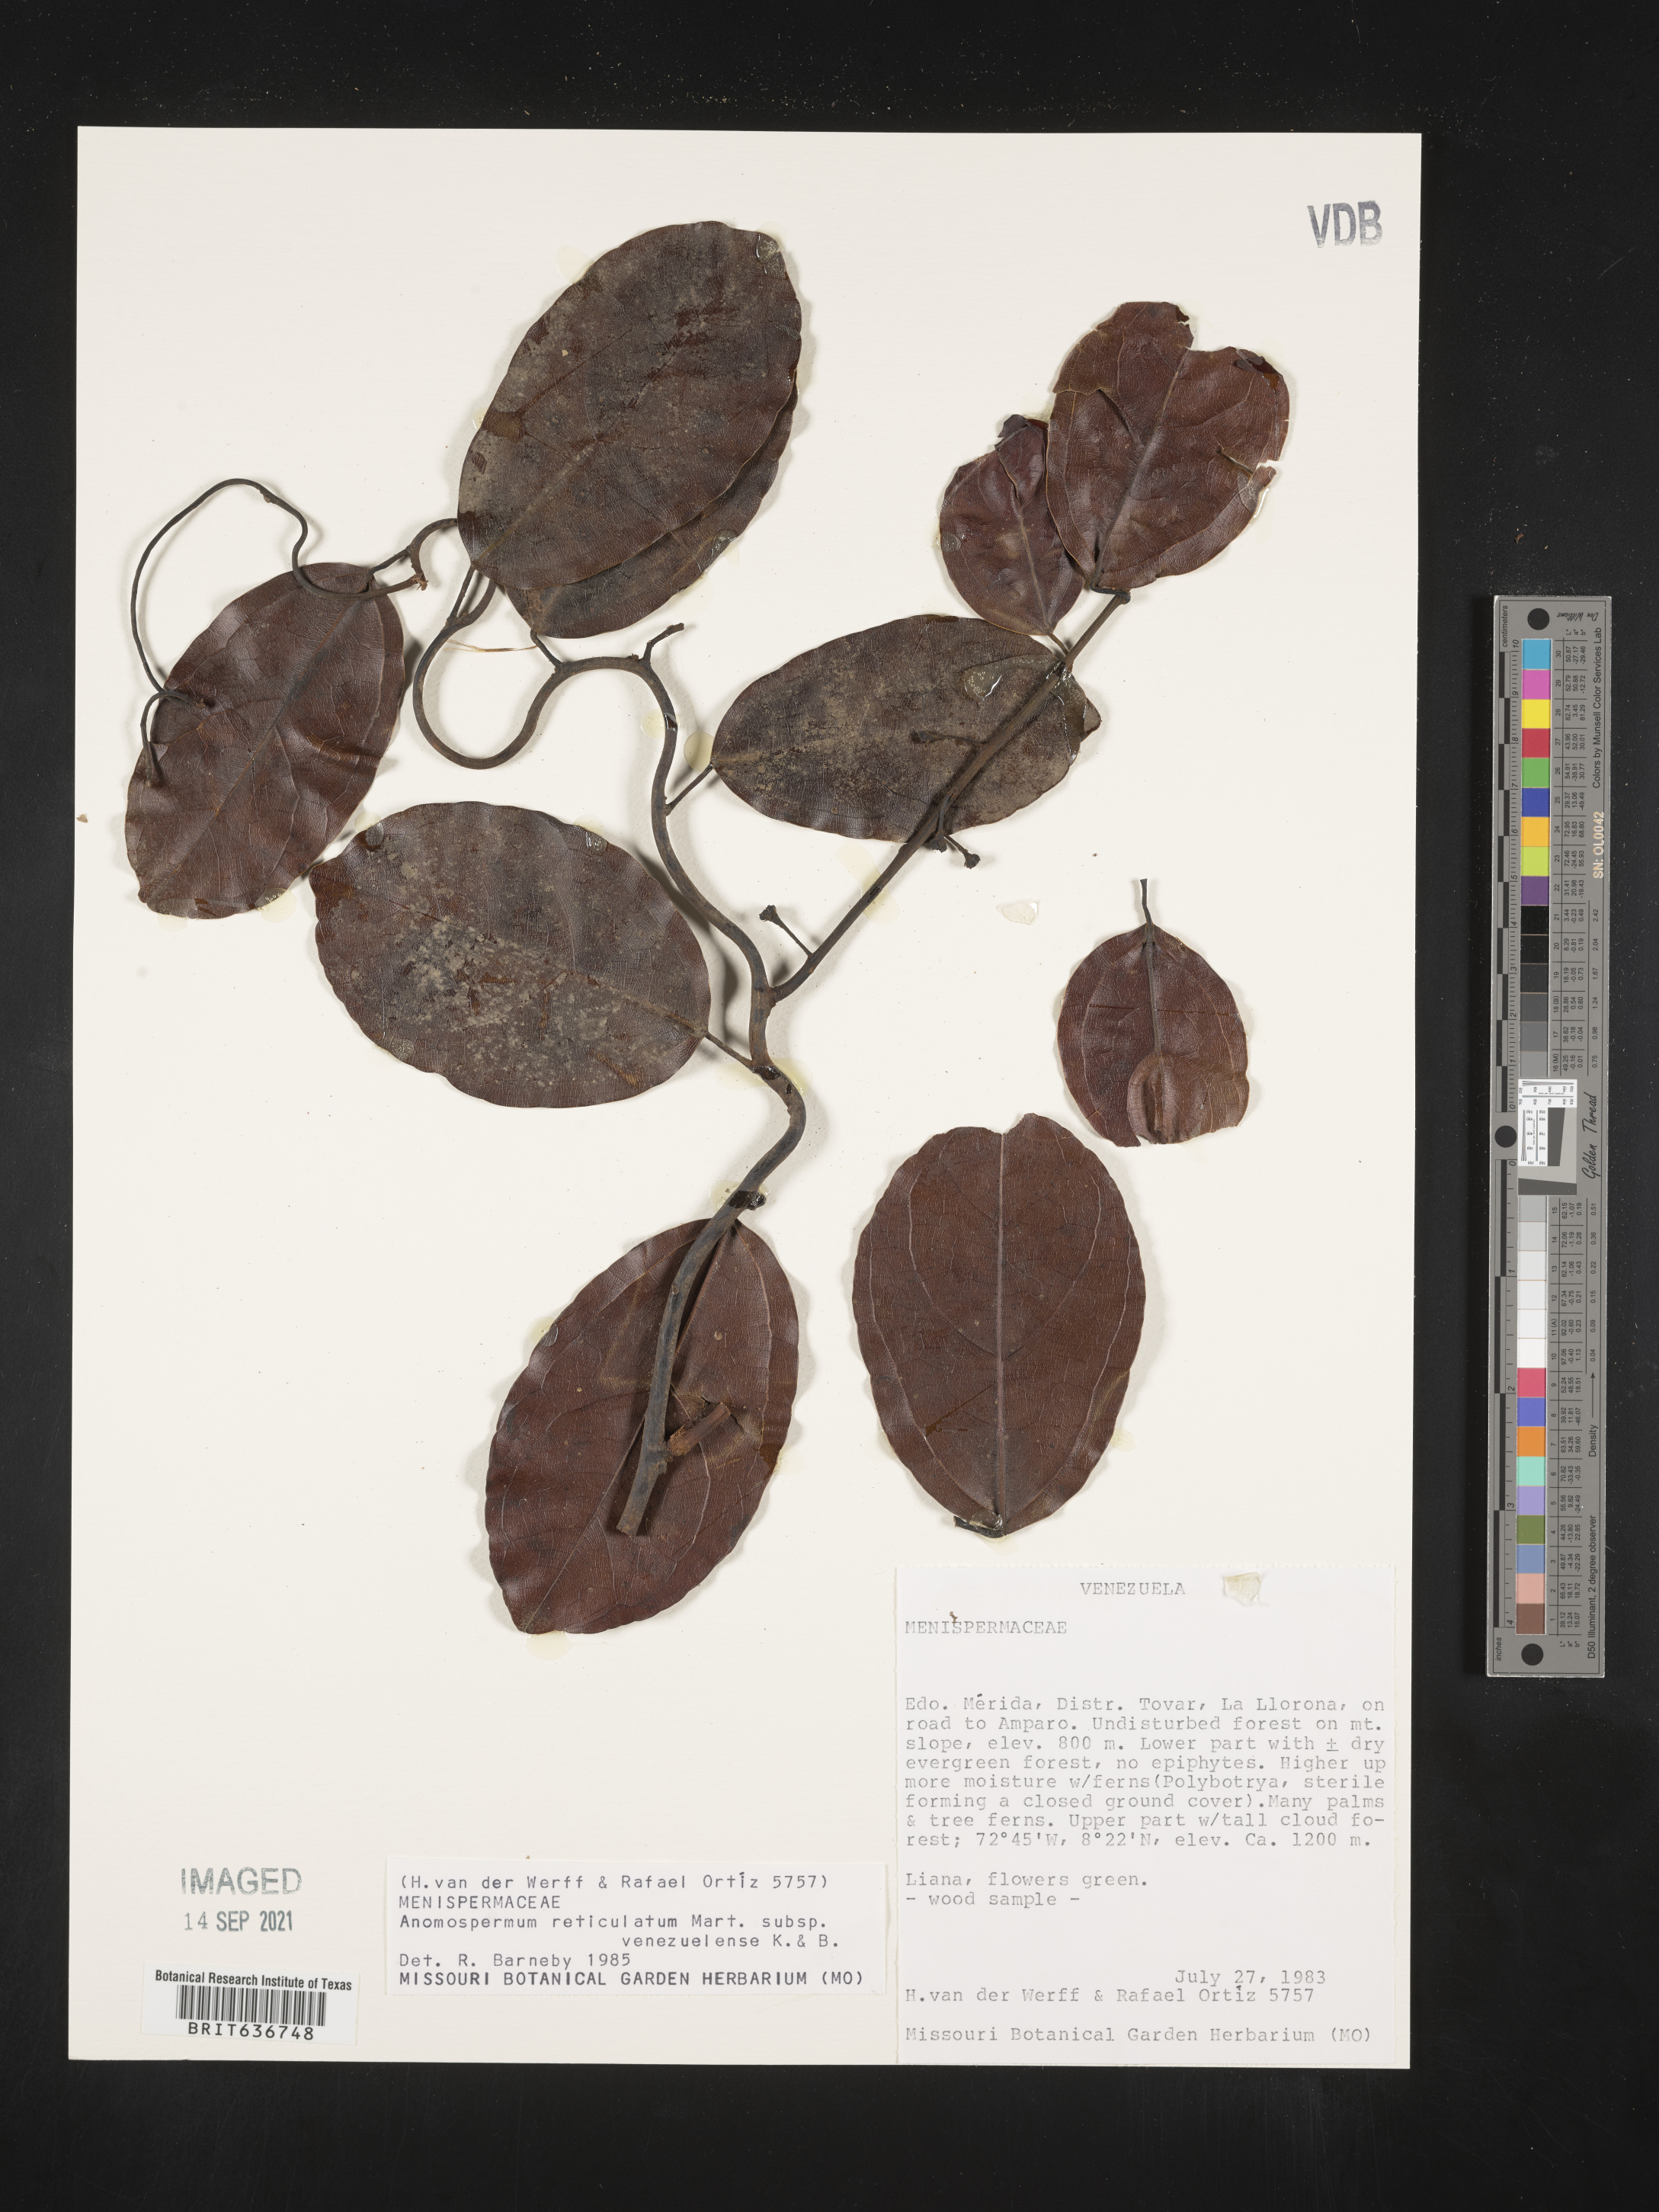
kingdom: Plantae
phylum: Tracheophyta
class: Magnoliopsida
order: Ranunculales
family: Menispermaceae
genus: Anomospermum
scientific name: Anomospermum
